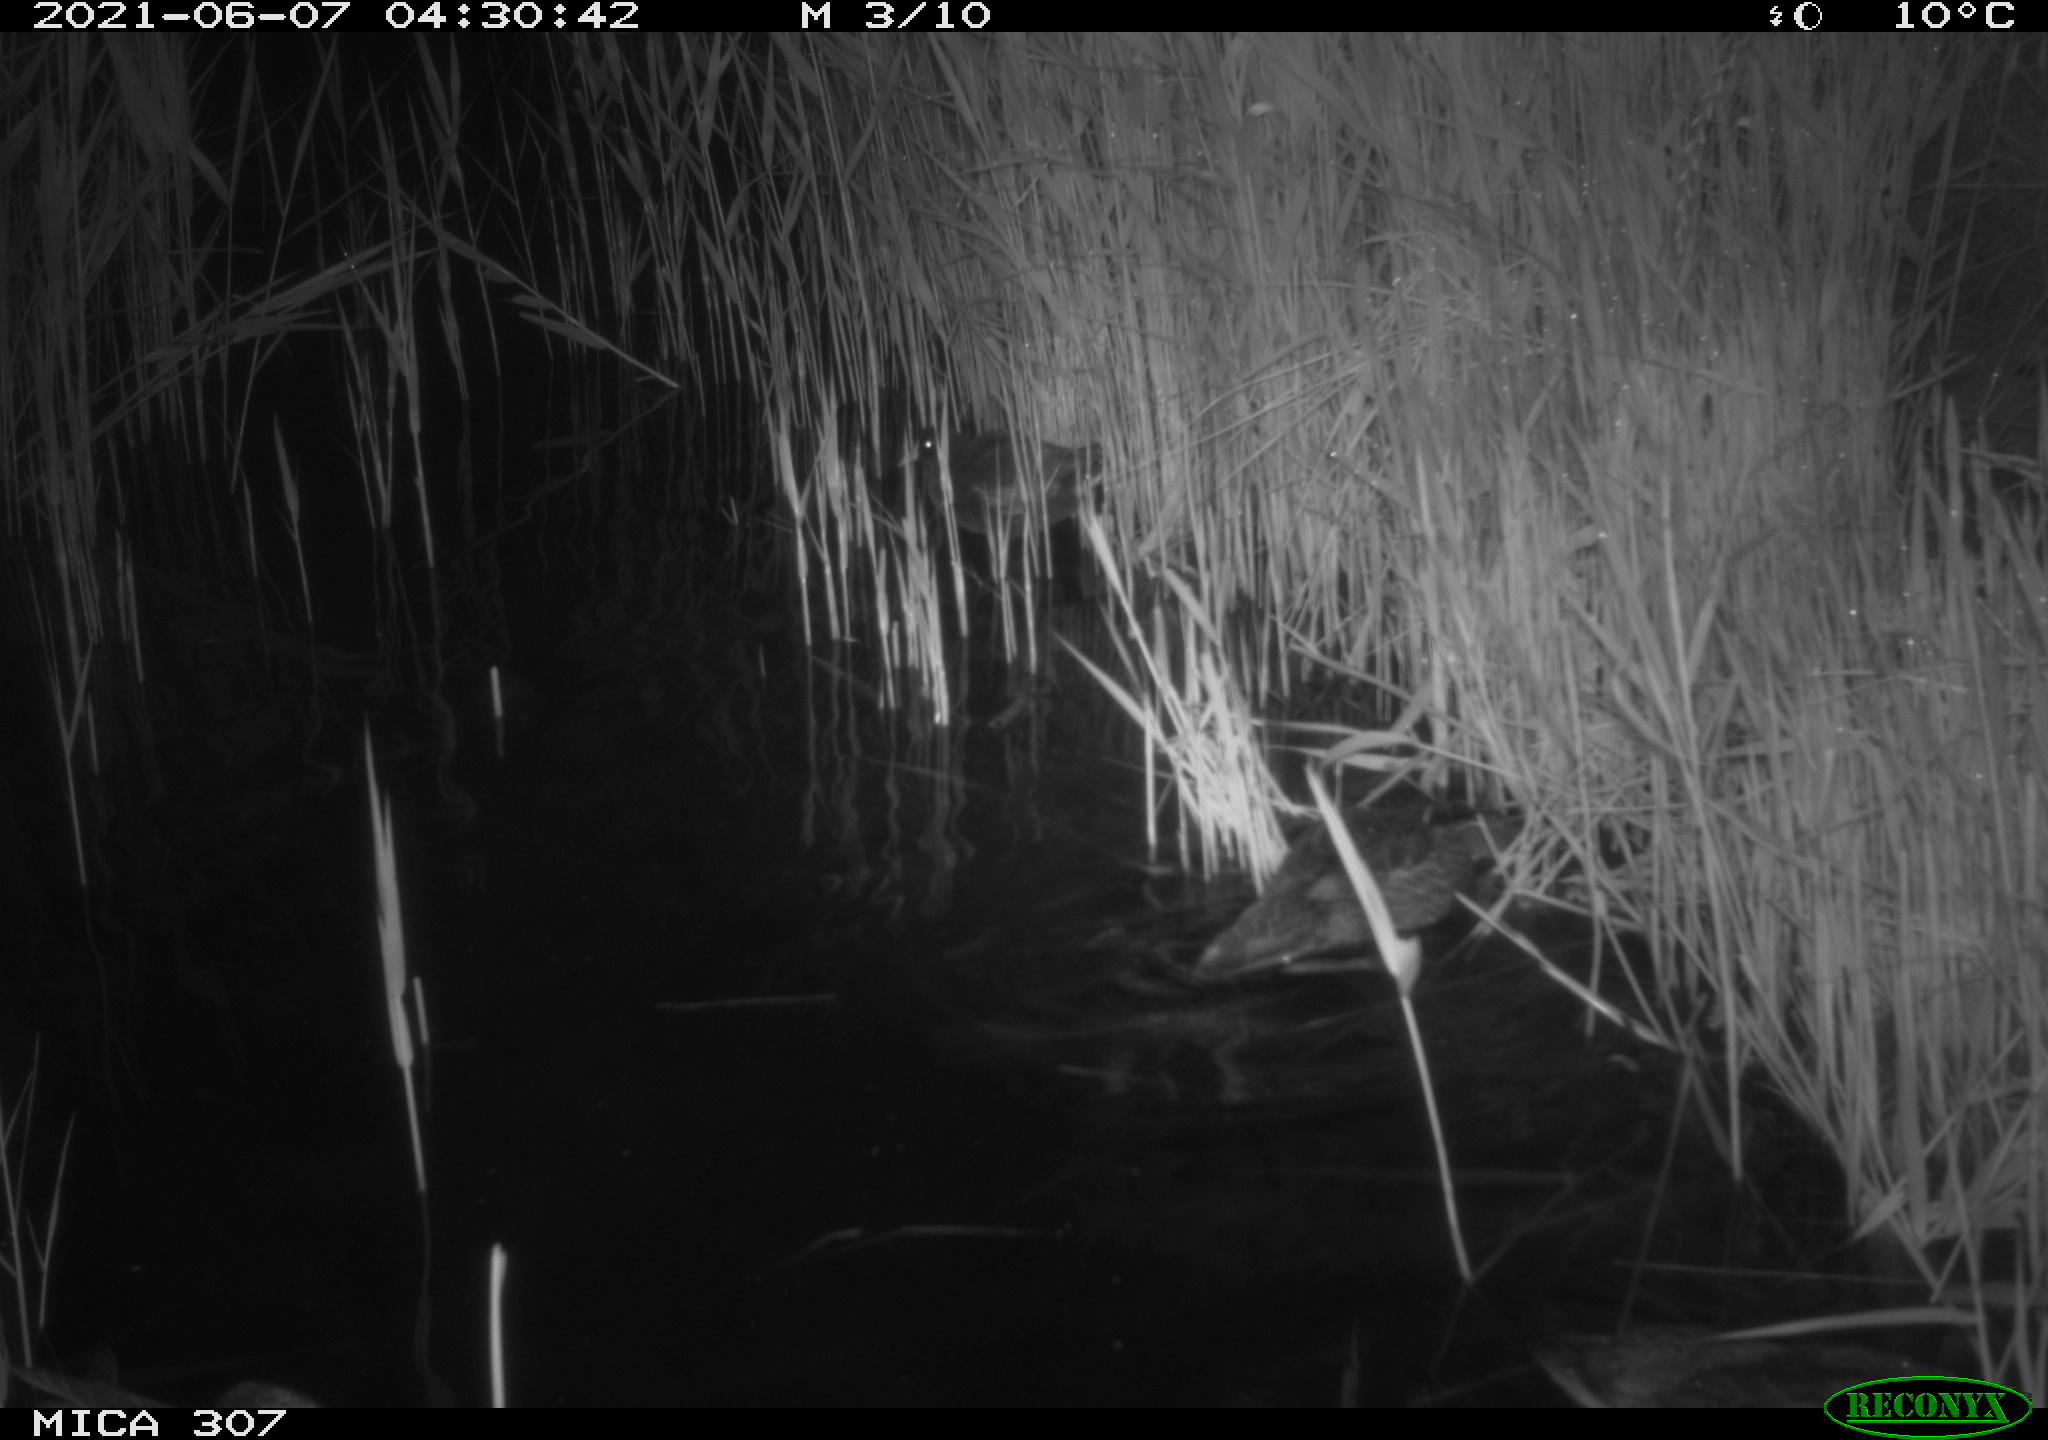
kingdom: Animalia
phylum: Chordata
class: Aves
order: Gruiformes
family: Rallidae
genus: Fulica
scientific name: Fulica atra
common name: Eurasian coot
